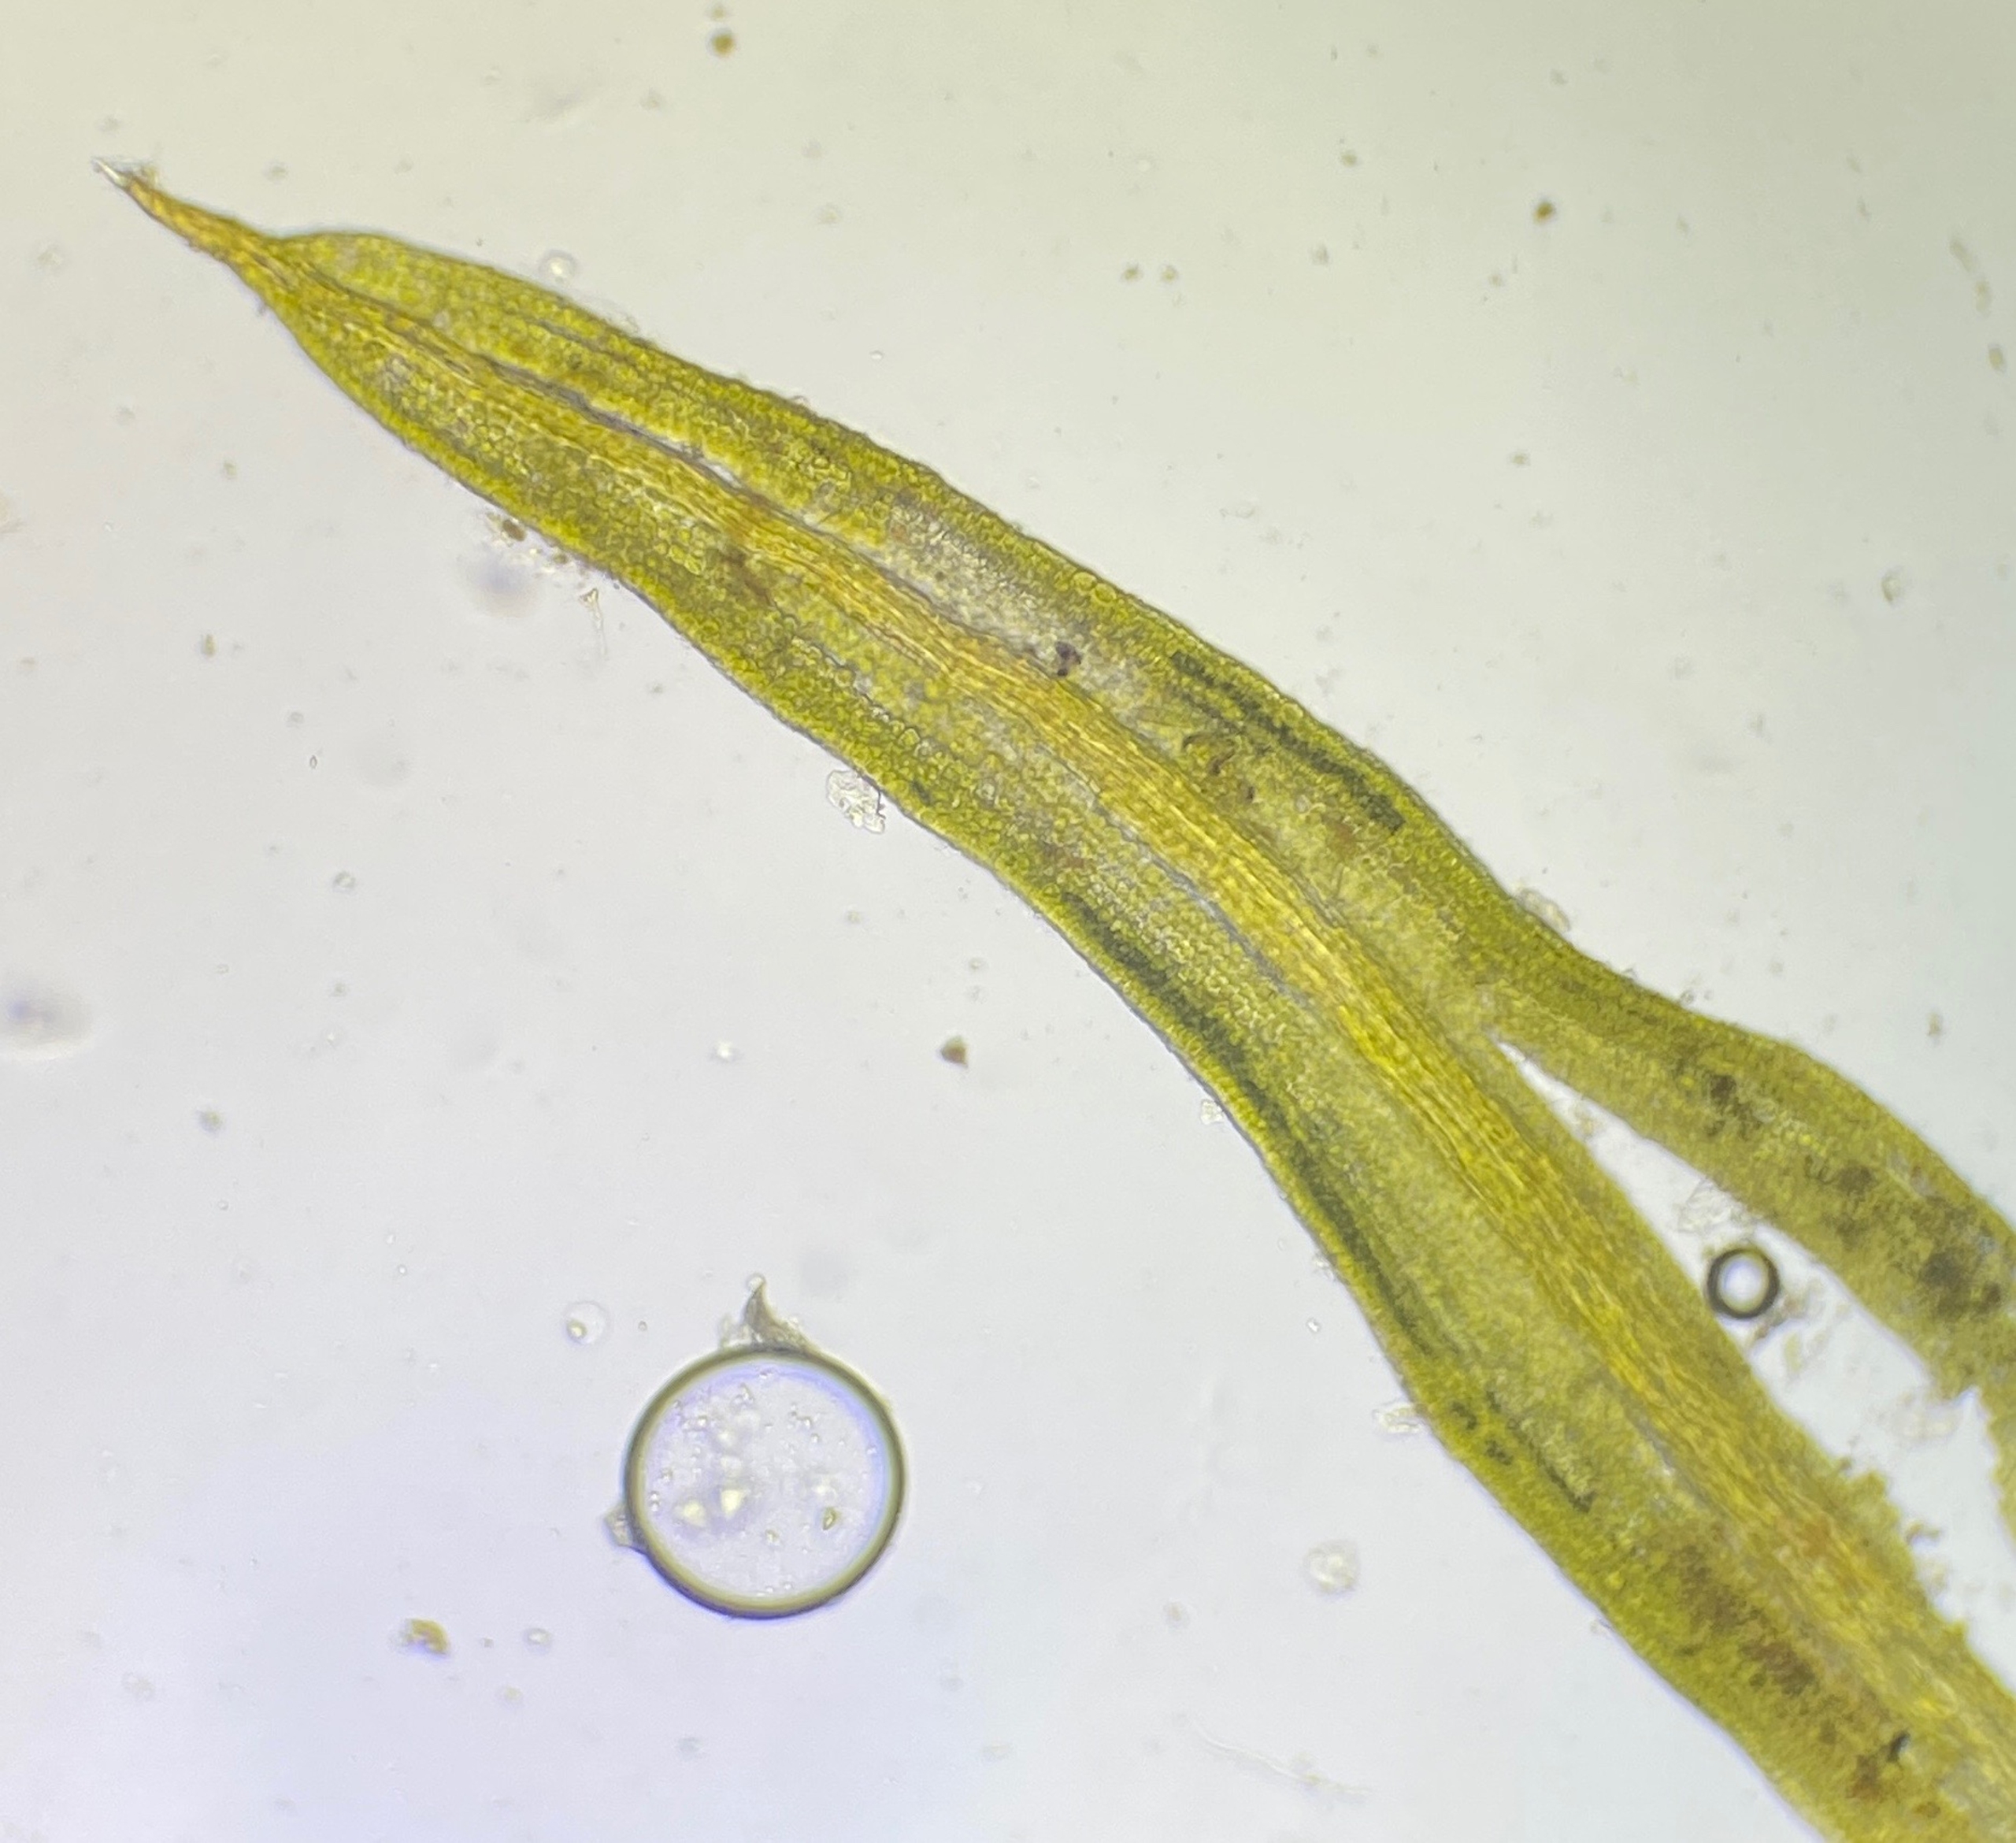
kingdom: Plantae
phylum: Bryophyta
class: Bryopsida
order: Pottiales
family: Pottiaceae
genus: Weissia
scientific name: Weissia controversa
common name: Smaltandet krusmos
